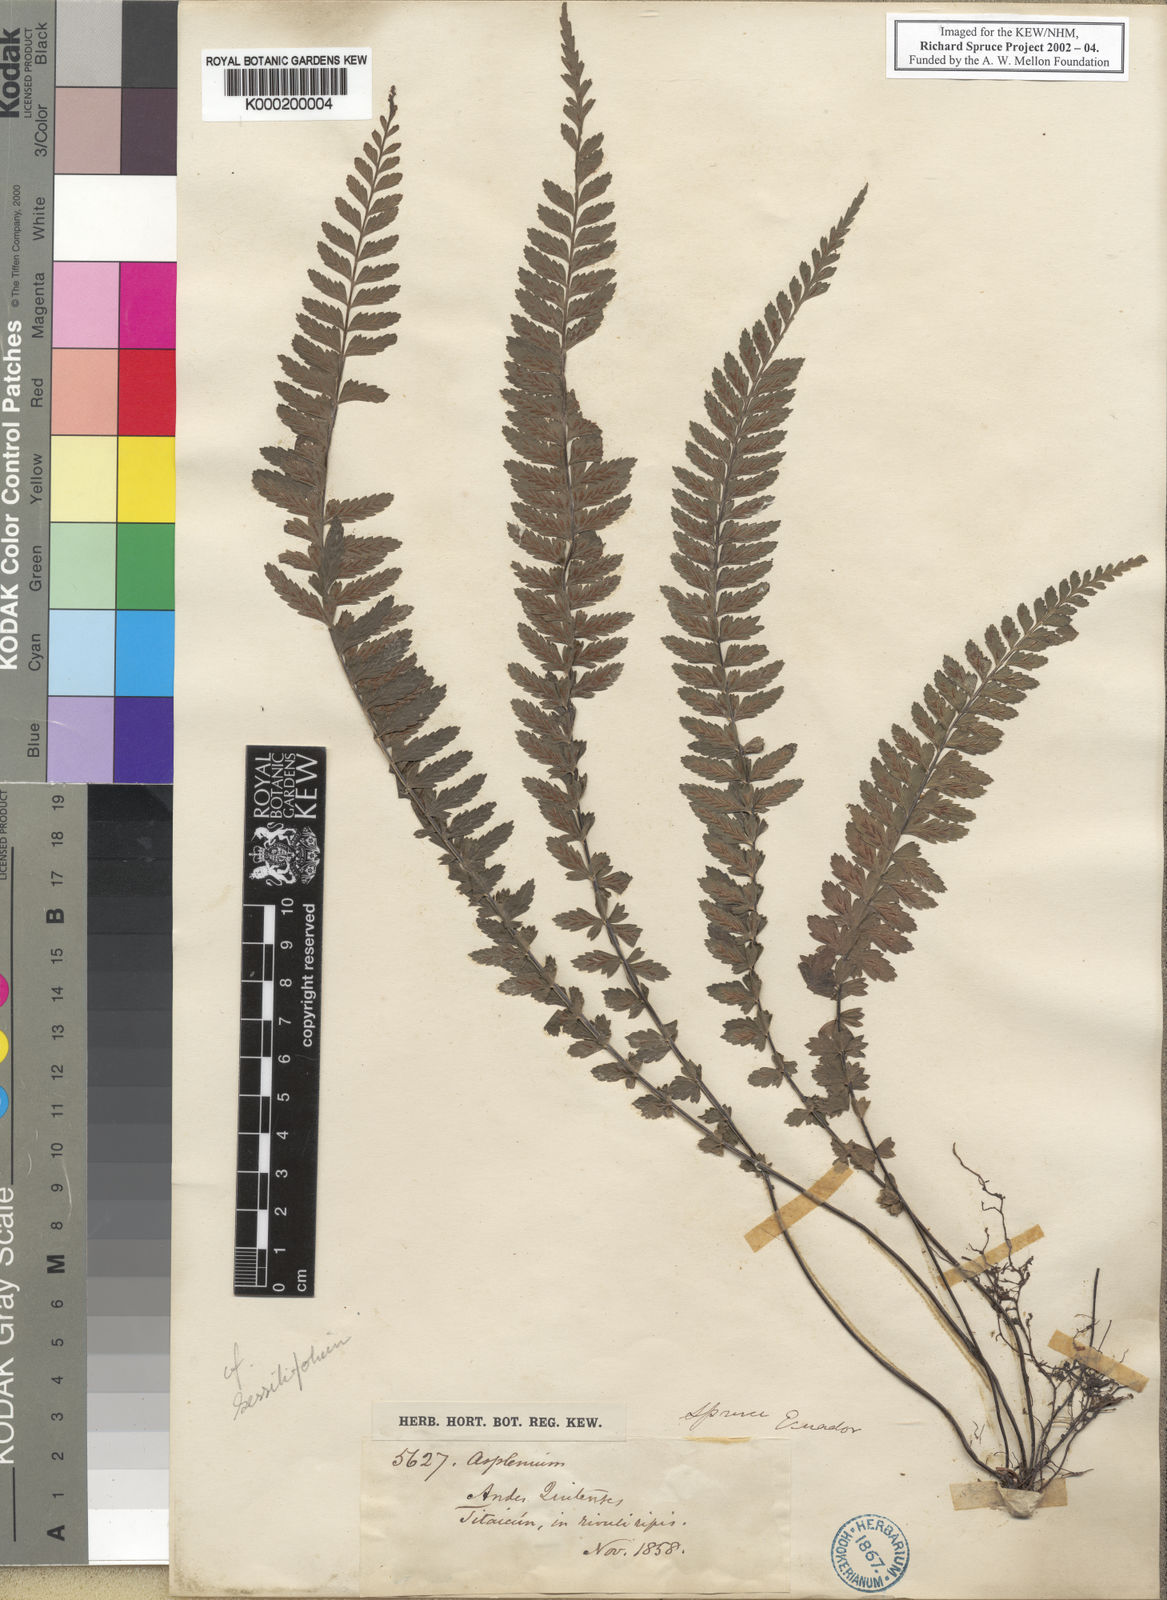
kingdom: Plantae
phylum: Tracheophyta
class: Polypodiopsida
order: Polypodiales
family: Aspleniaceae
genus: Asplenium
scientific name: Asplenium sessilifolium
